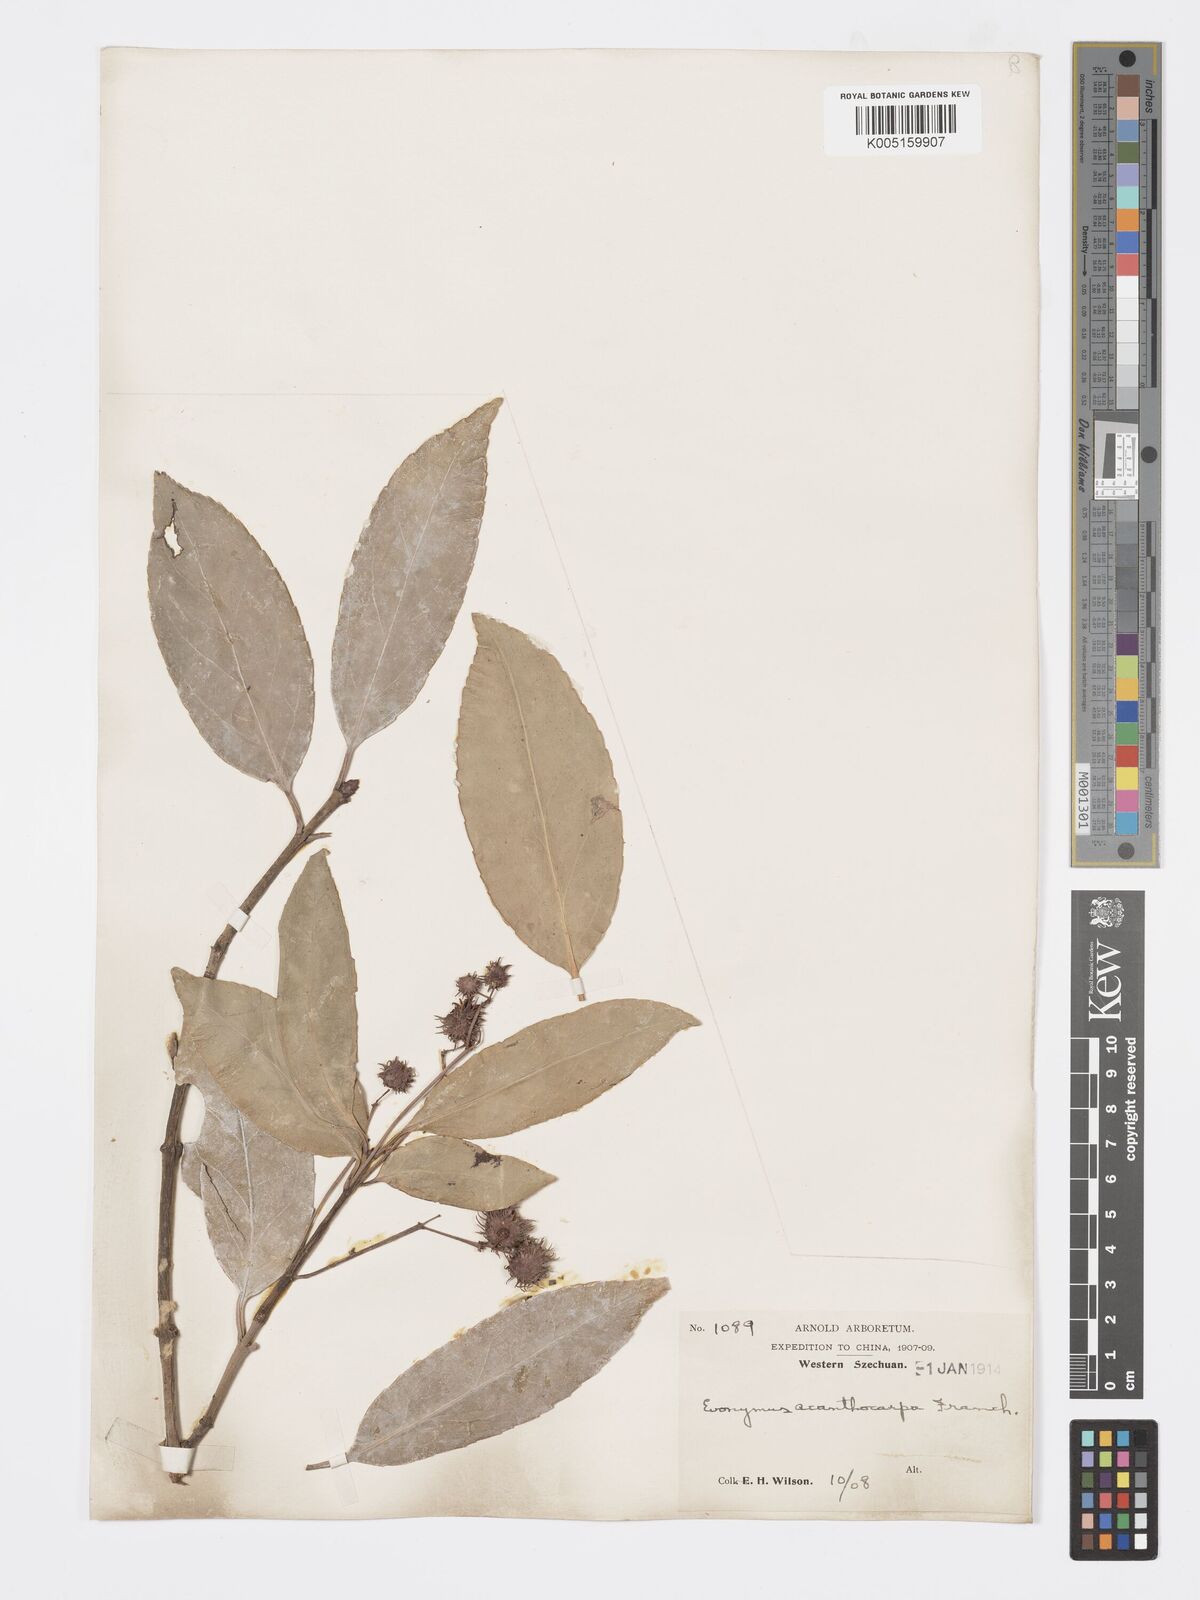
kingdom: Plantae
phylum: Tracheophyta
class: Magnoliopsida
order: Celastrales
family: Celastraceae
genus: Euonymus
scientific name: Euonymus acanthocarpus
